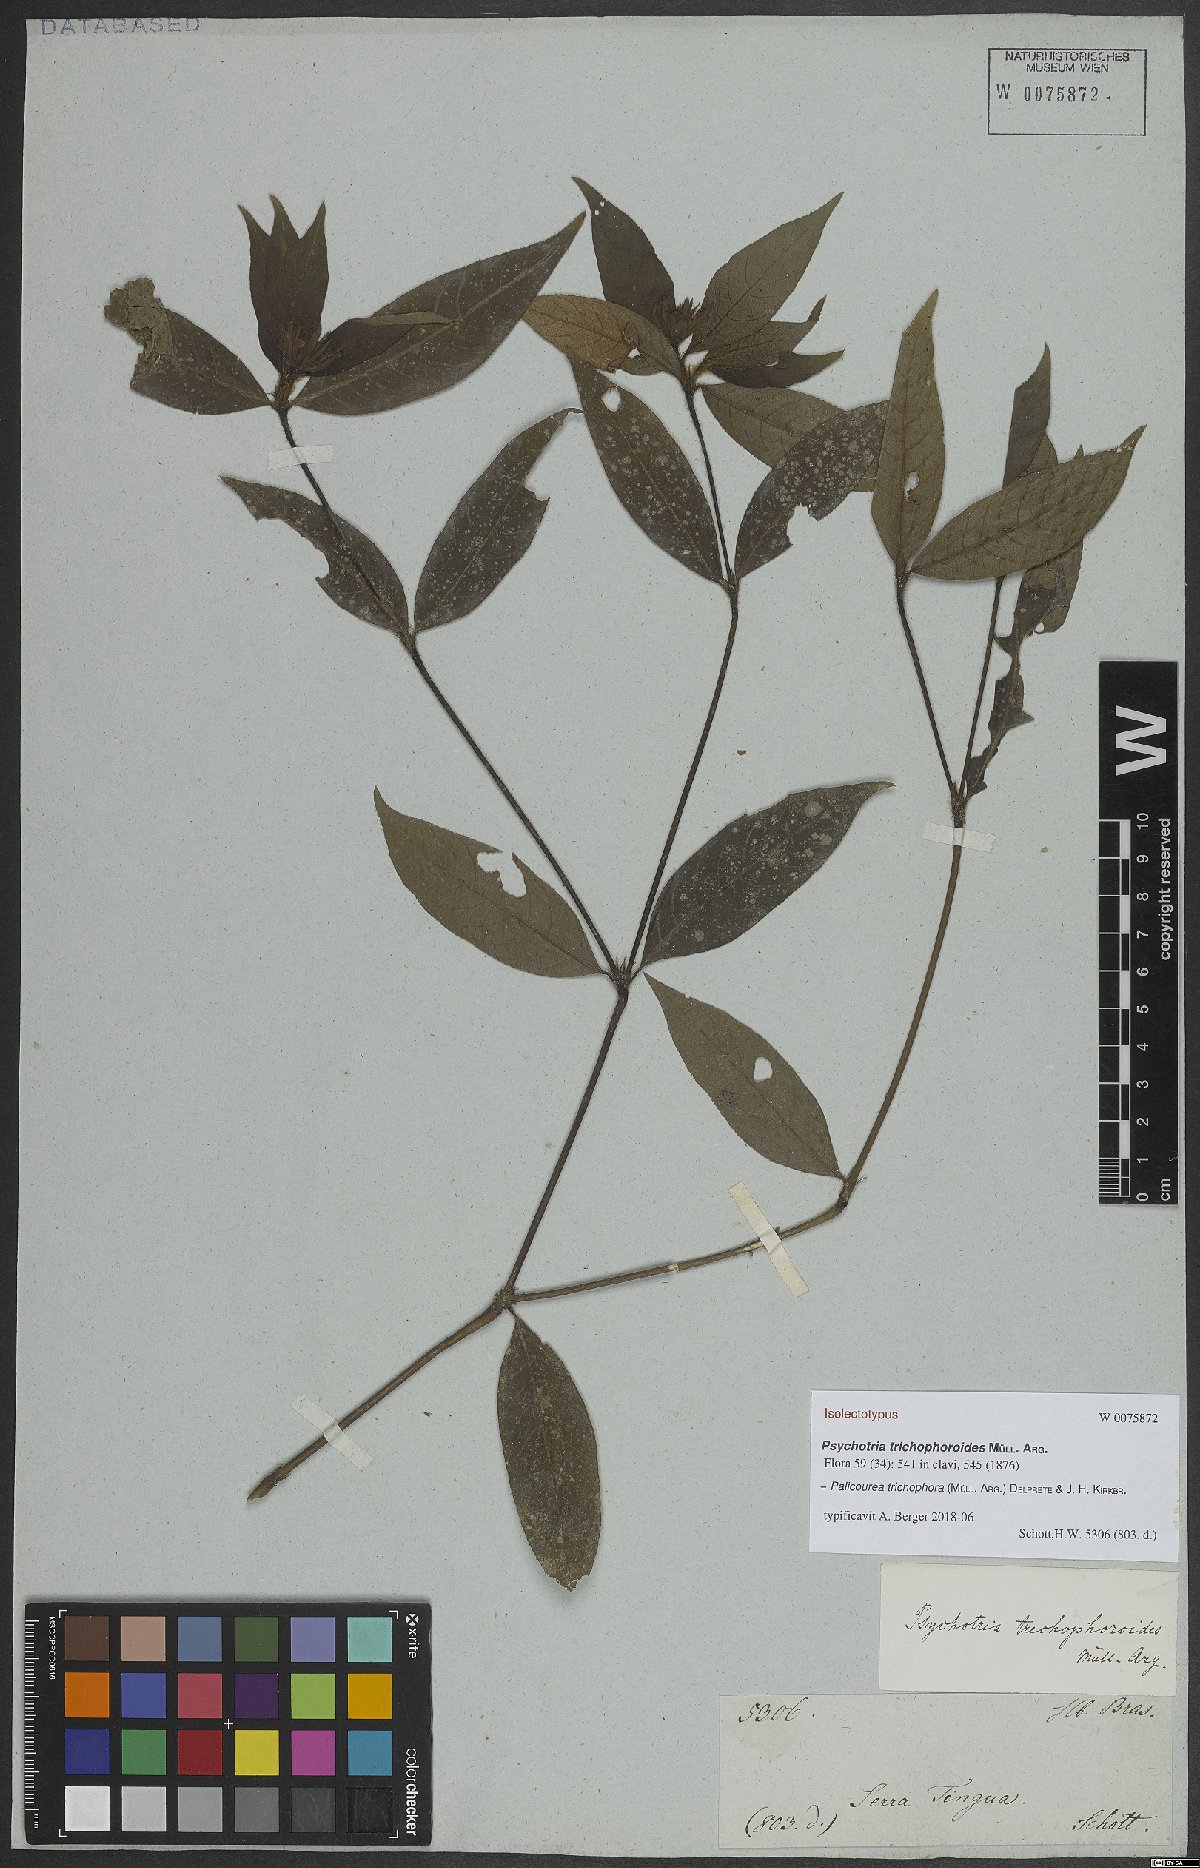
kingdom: Plantae
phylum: Tracheophyta
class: Magnoliopsida
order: Gentianales
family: Rubiaceae
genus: Palicourea
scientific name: Palicourea trichophora
